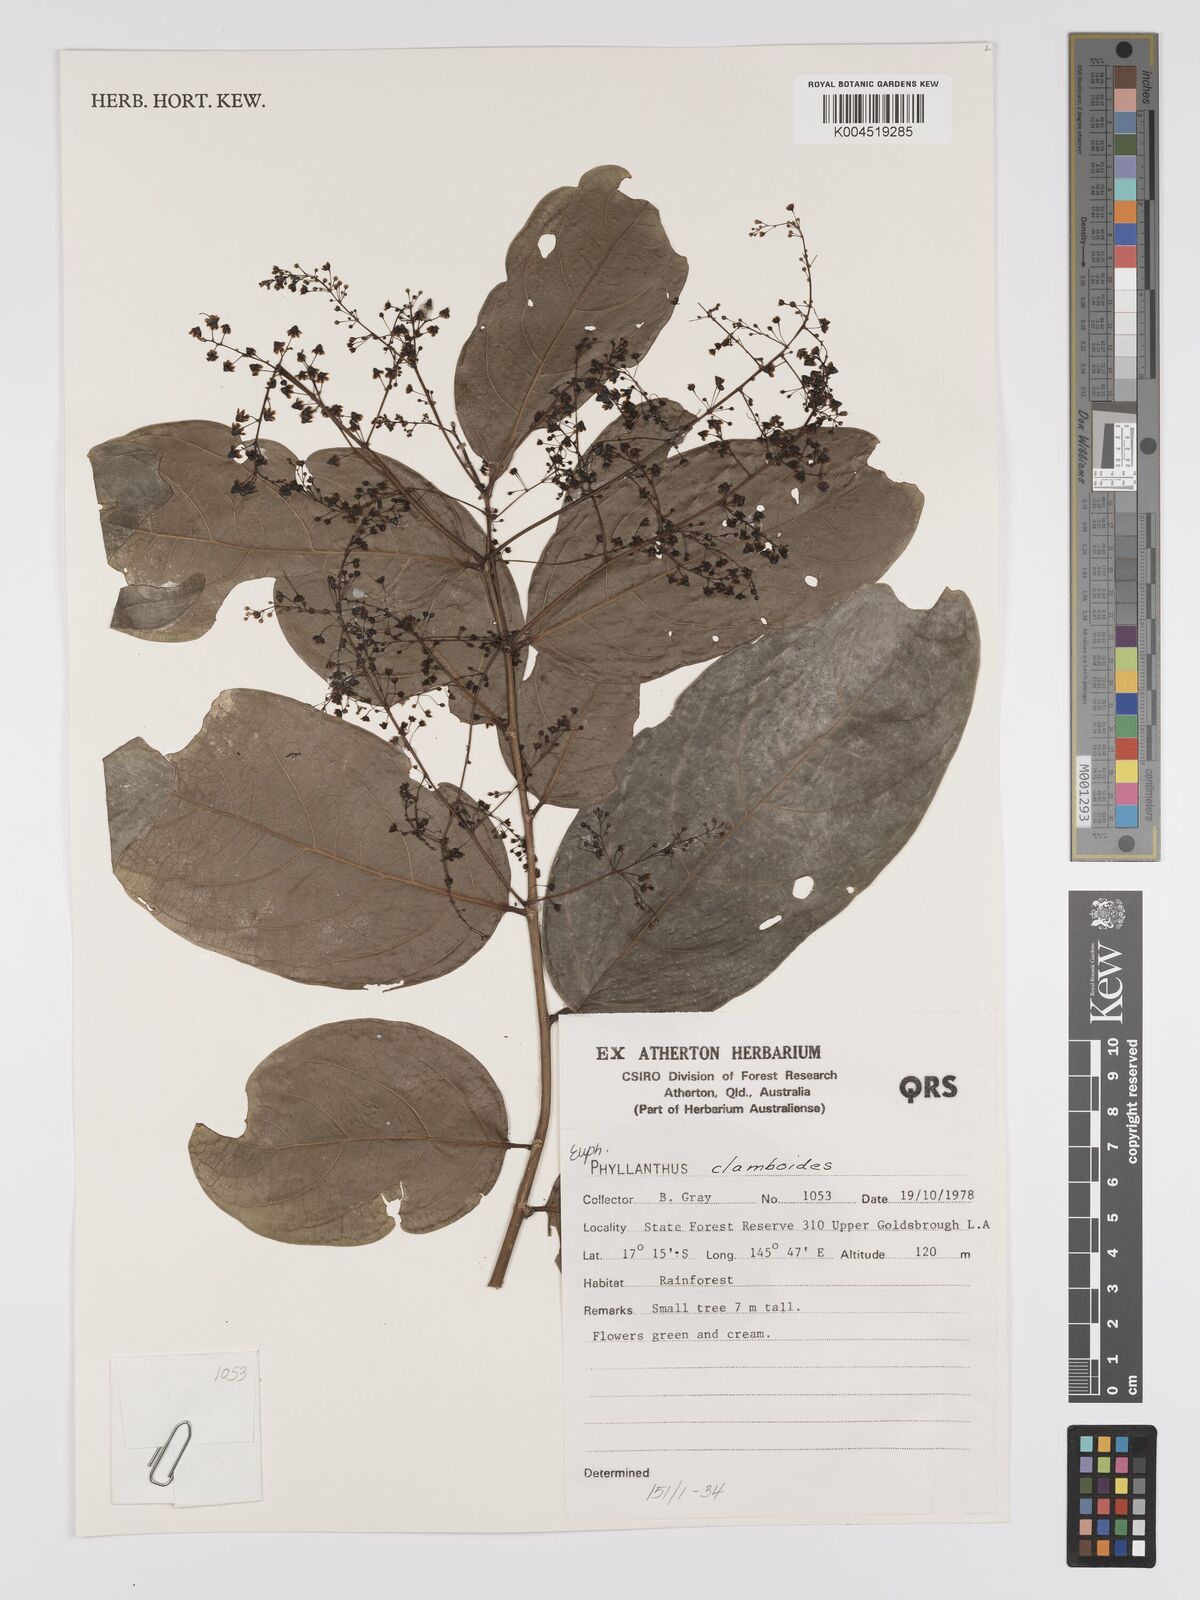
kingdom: Plantae
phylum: Tracheophyta
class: Magnoliopsida
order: Malpighiales
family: Phyllanthaceae
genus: Phyllanthus
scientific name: Phyllanthus clamboides
